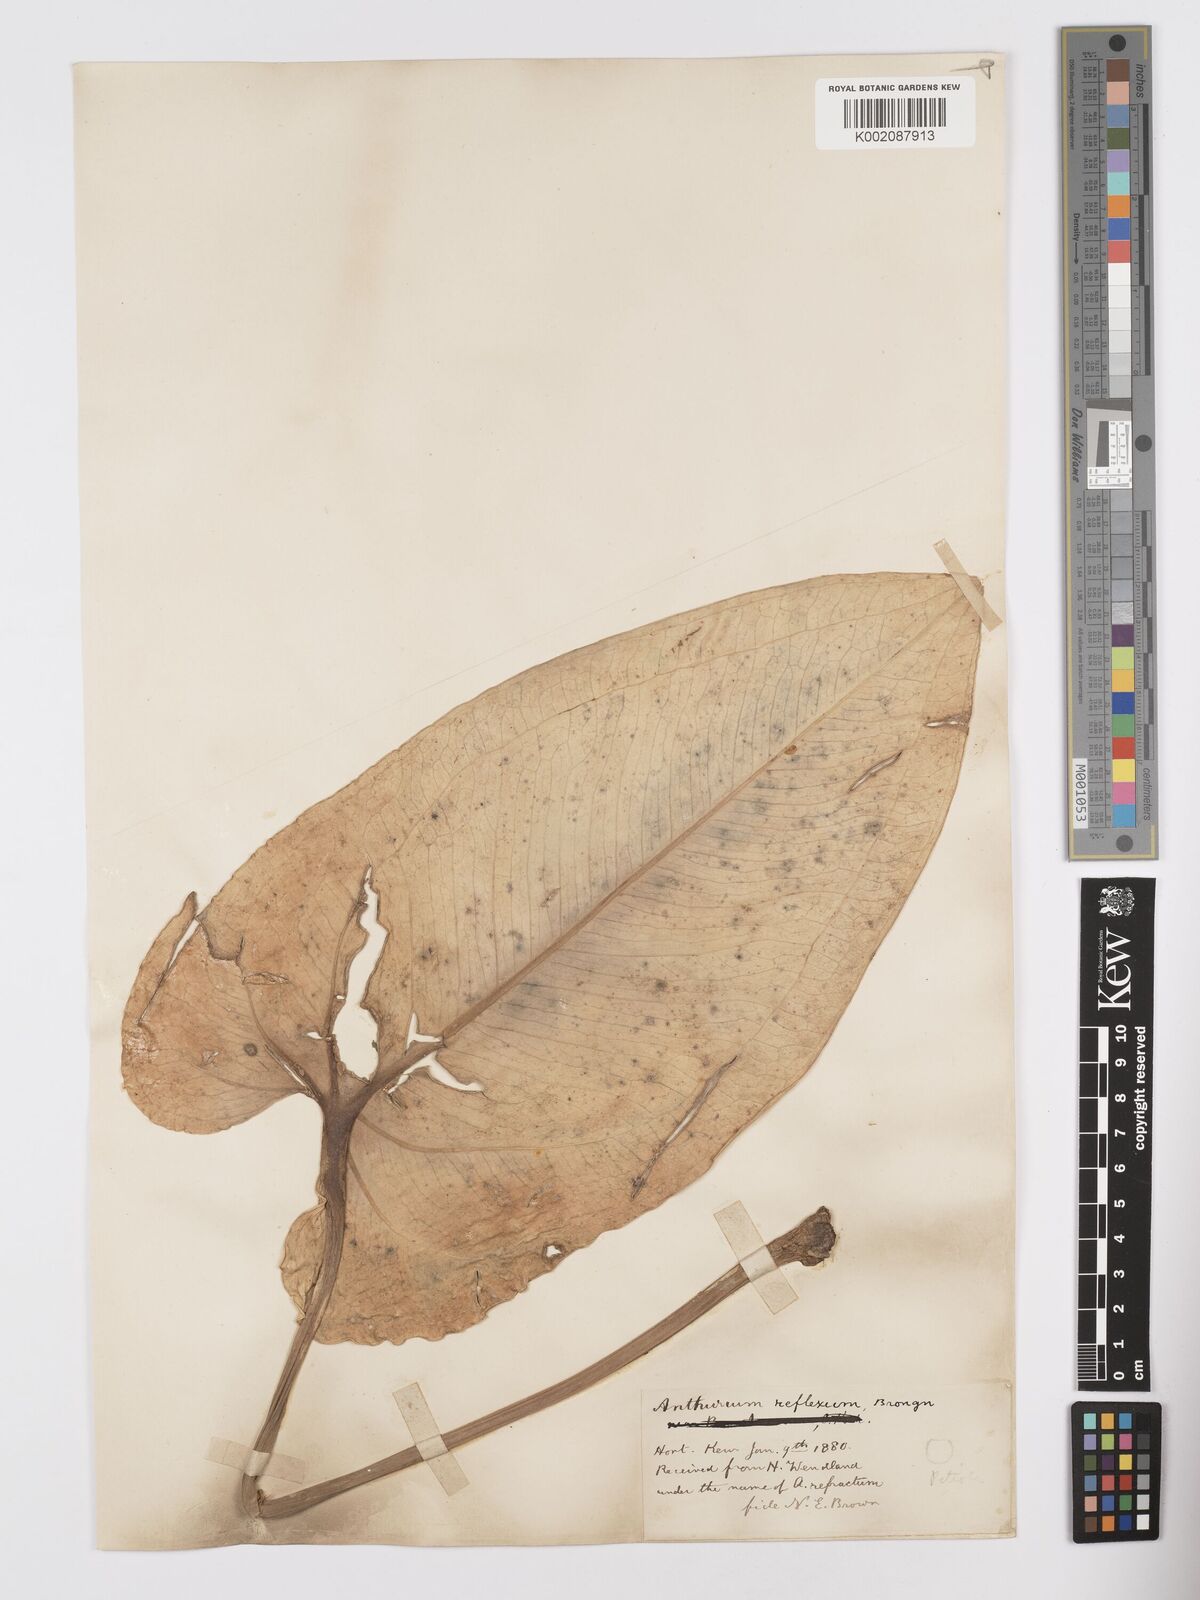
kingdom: Plantae
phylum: Tracheophyta
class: Liliopsida
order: Alismatales
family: Araceae
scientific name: Araceae
